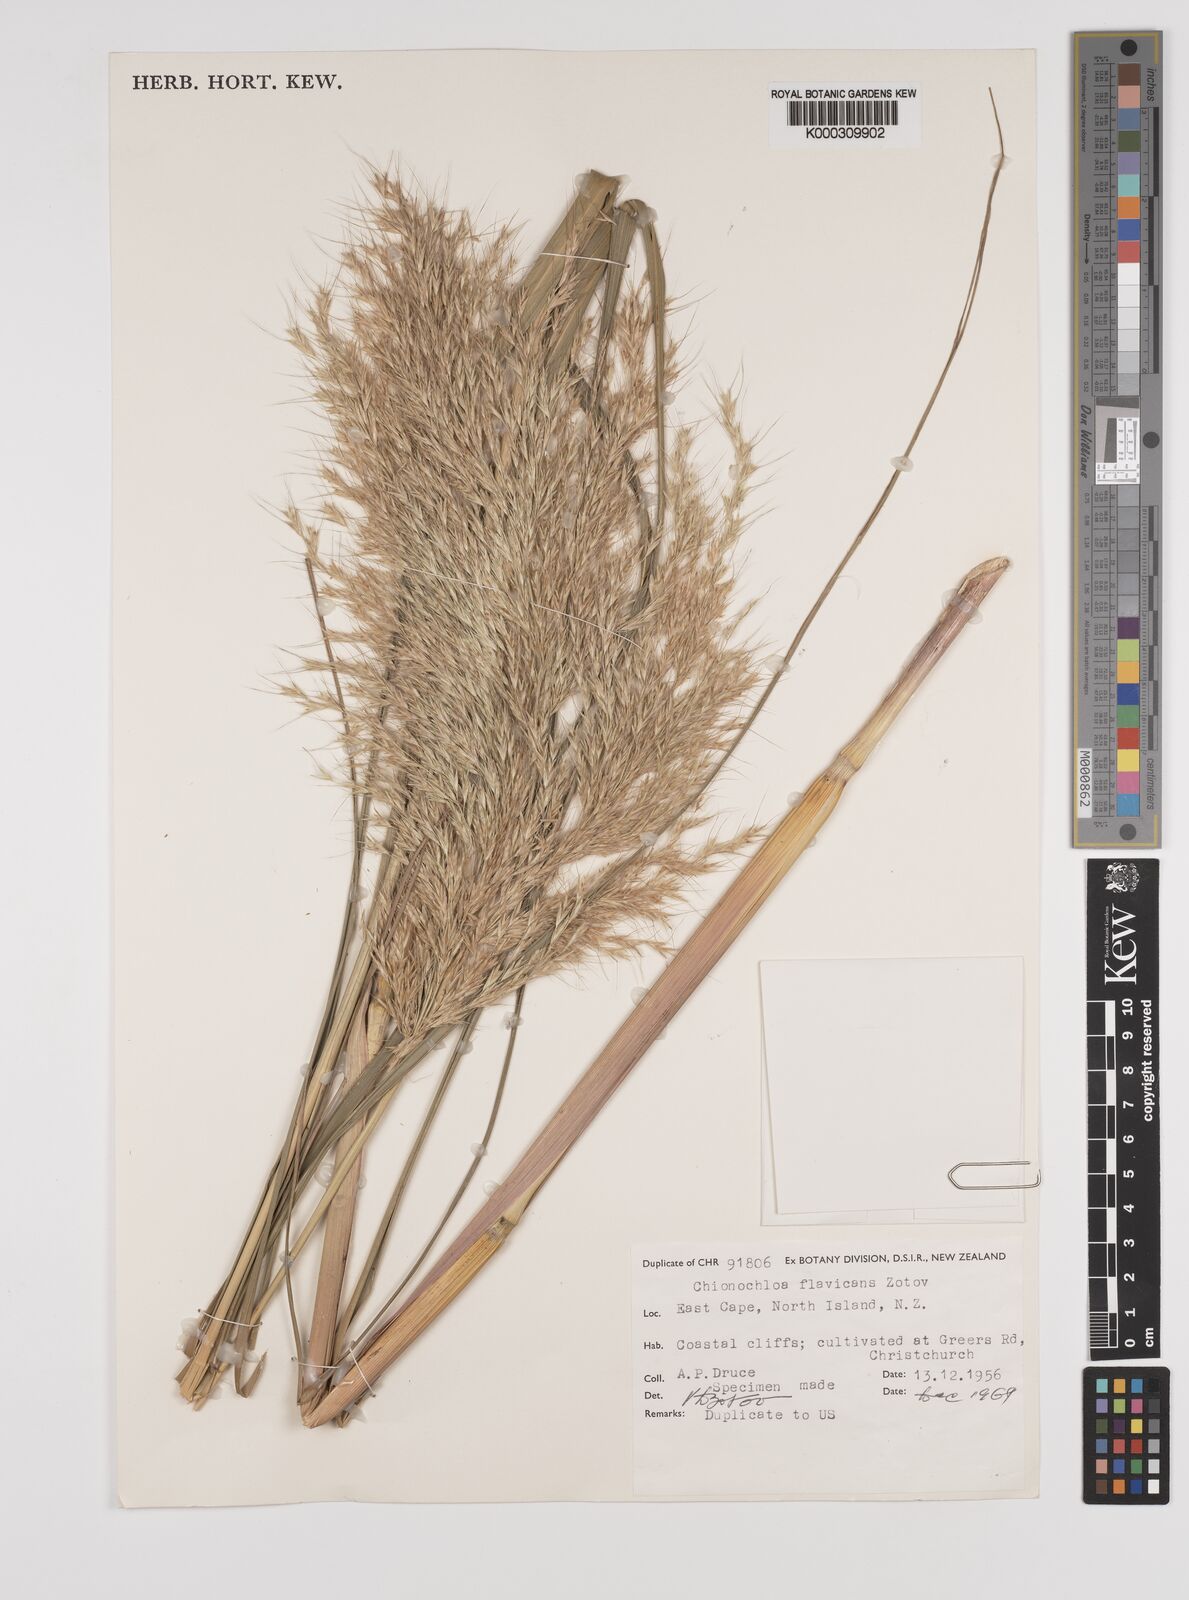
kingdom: Plantae
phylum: Tracheophyta
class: Liliopsida
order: Poales
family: Poaceae
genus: Chionochloa
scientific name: Chionochloa flavicans
